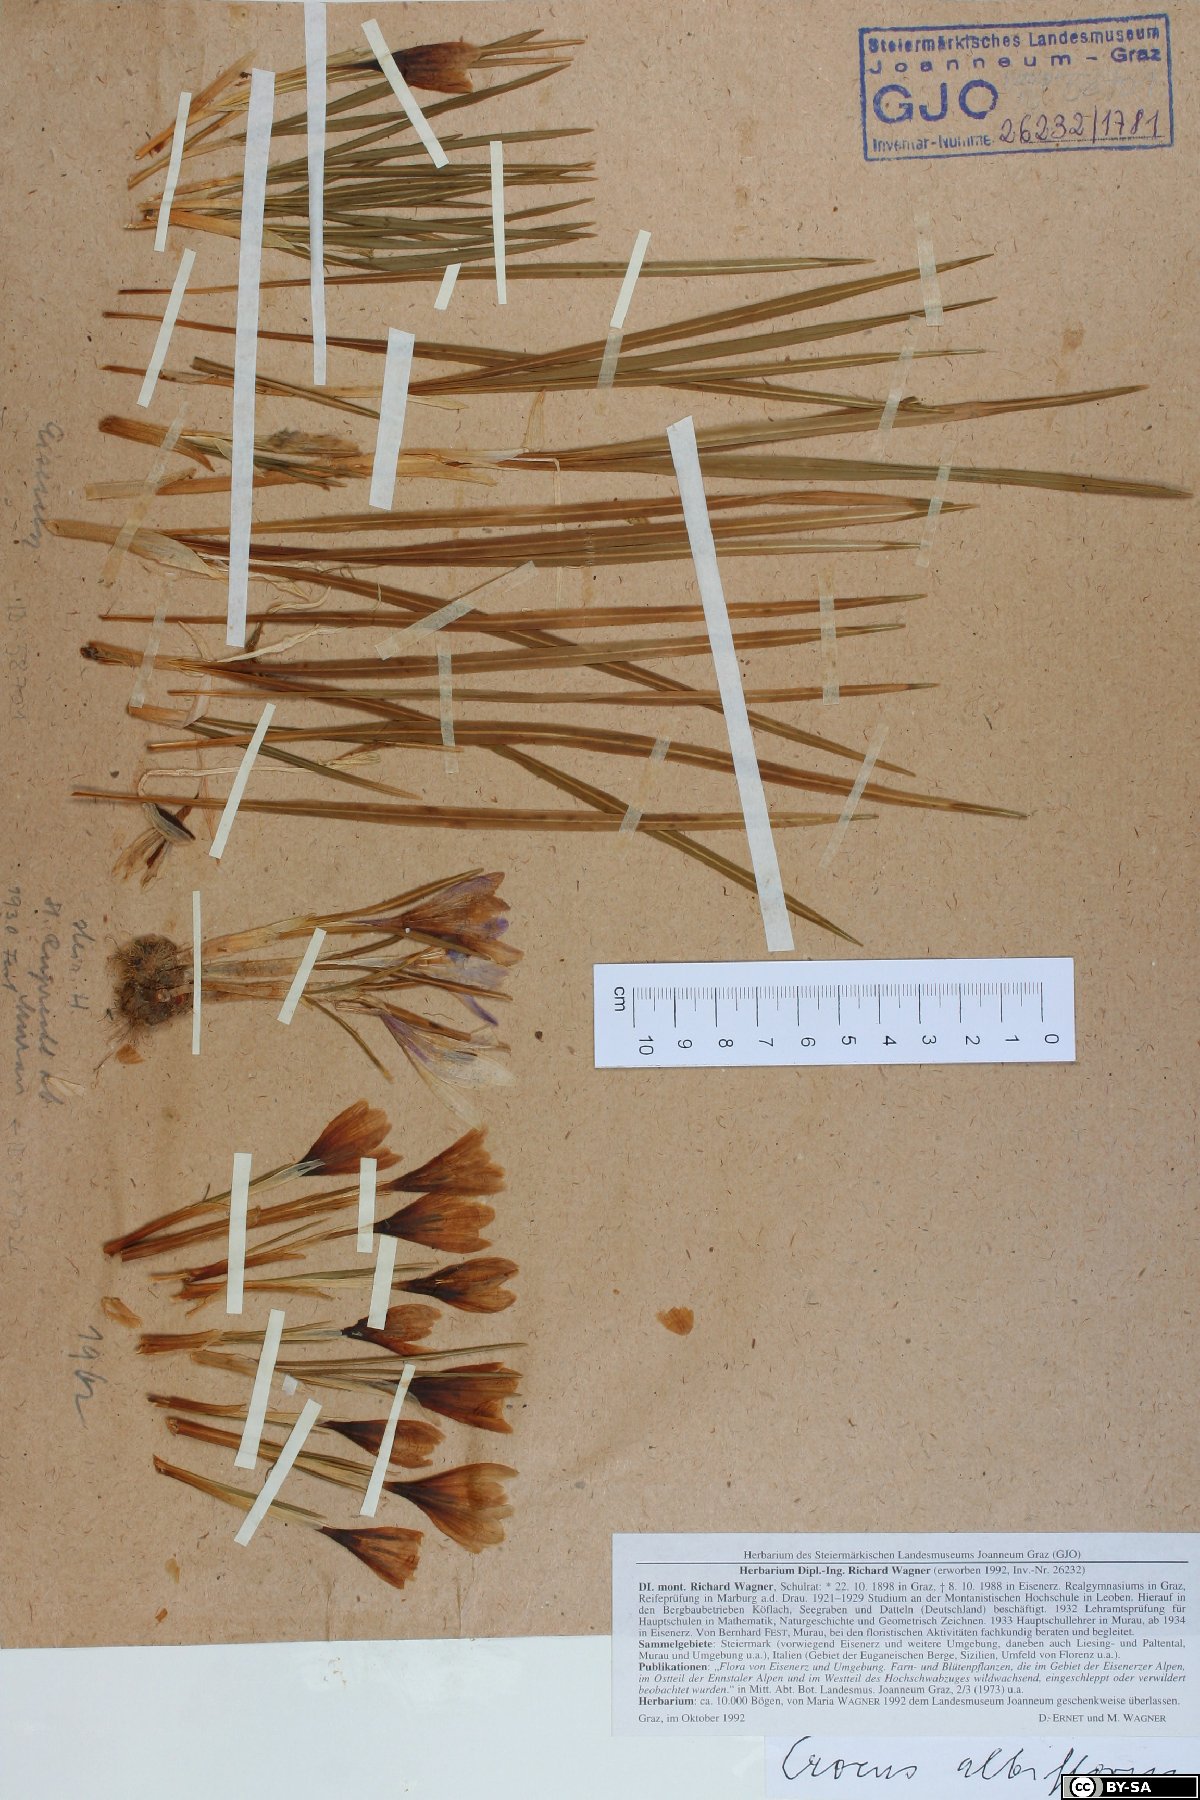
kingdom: Plantae
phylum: Tracheophyta
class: Liliopsida
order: Asparagales
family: Iridaceae
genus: Crocus
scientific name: Crocus vernus
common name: Spring crocus
